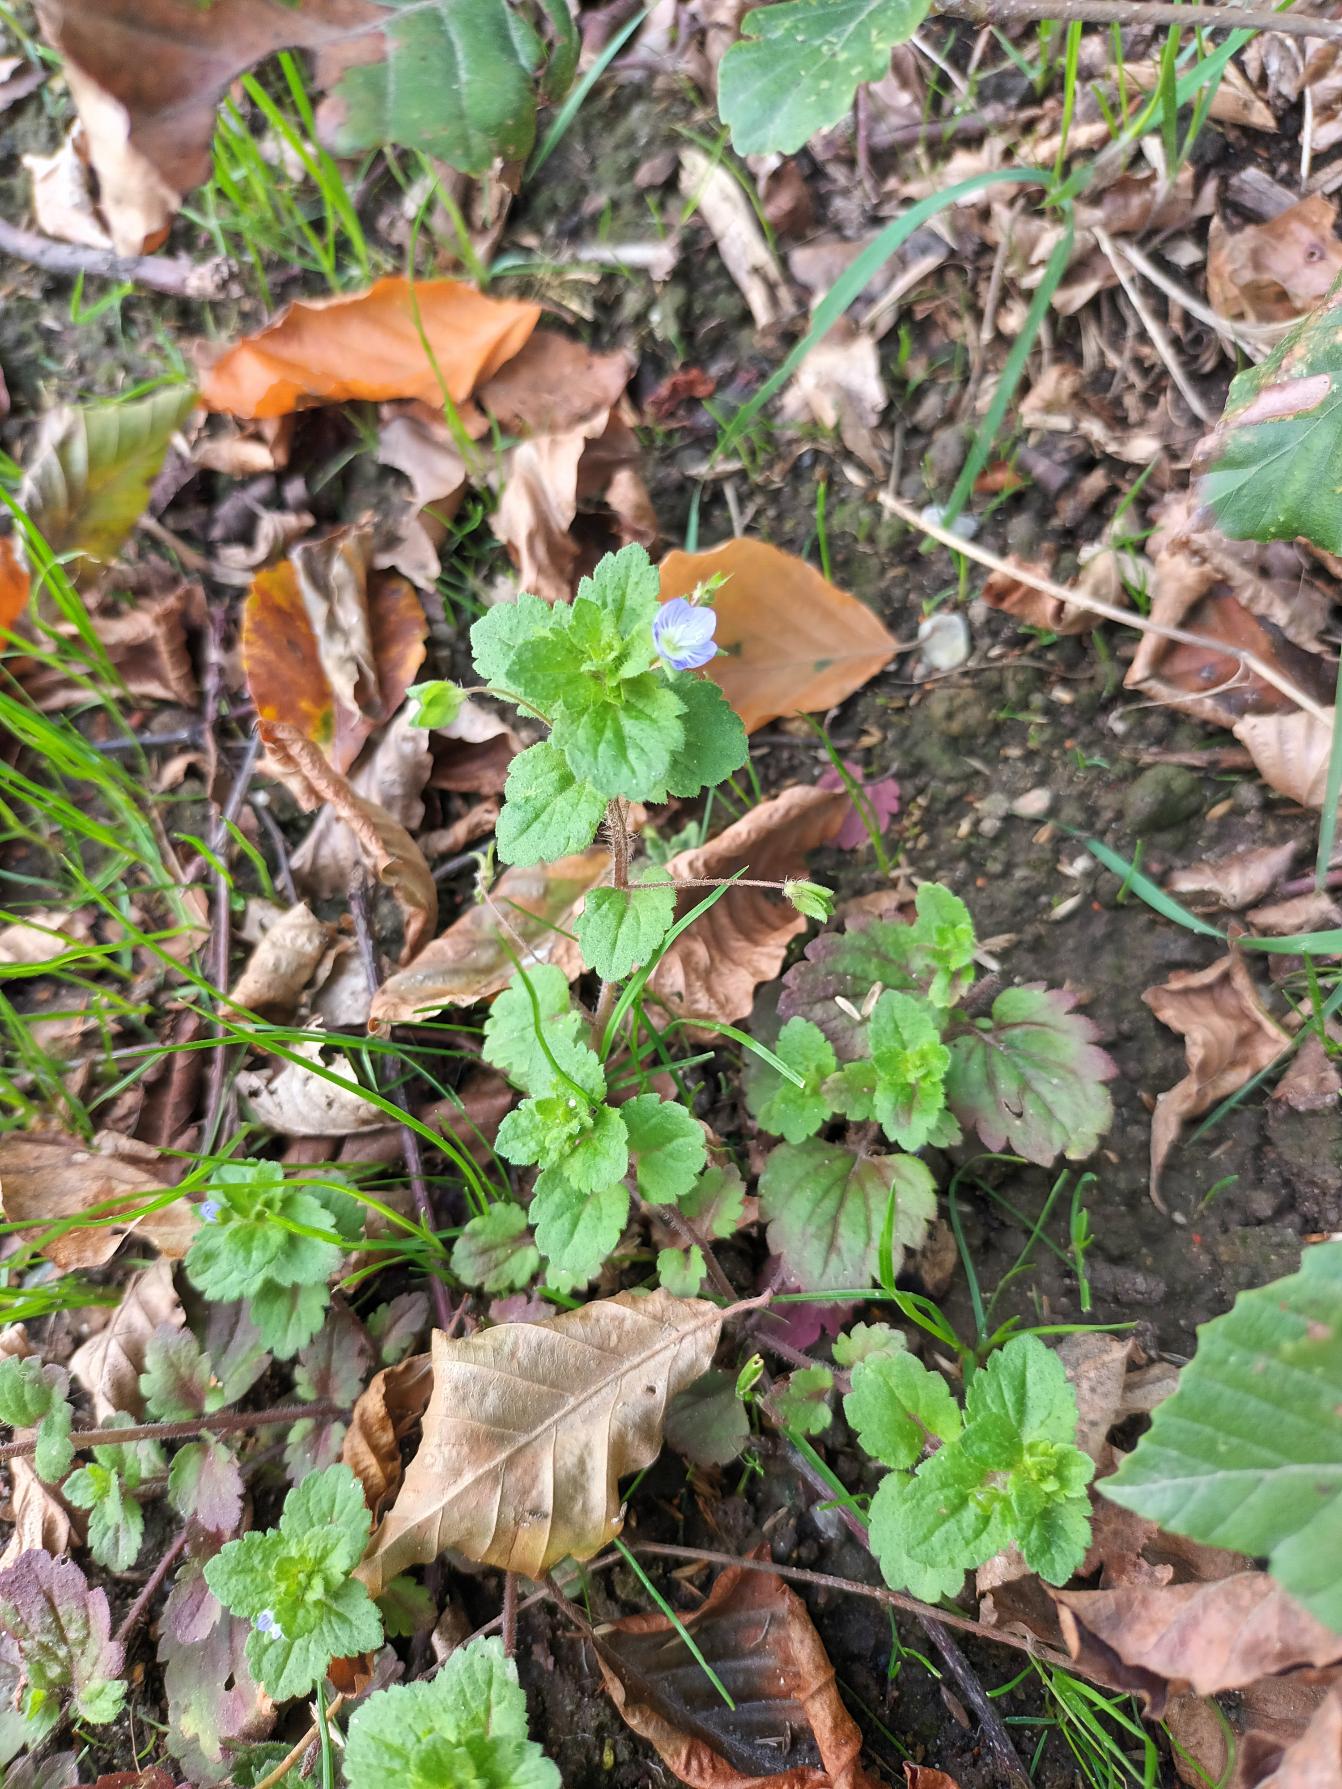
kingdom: Plantae
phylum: Tracheophyta
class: Magnoliopsida
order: Lamiales
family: Plantaginaceae
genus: Veronica
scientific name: Veronica persica
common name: Storkronet ærenpris
